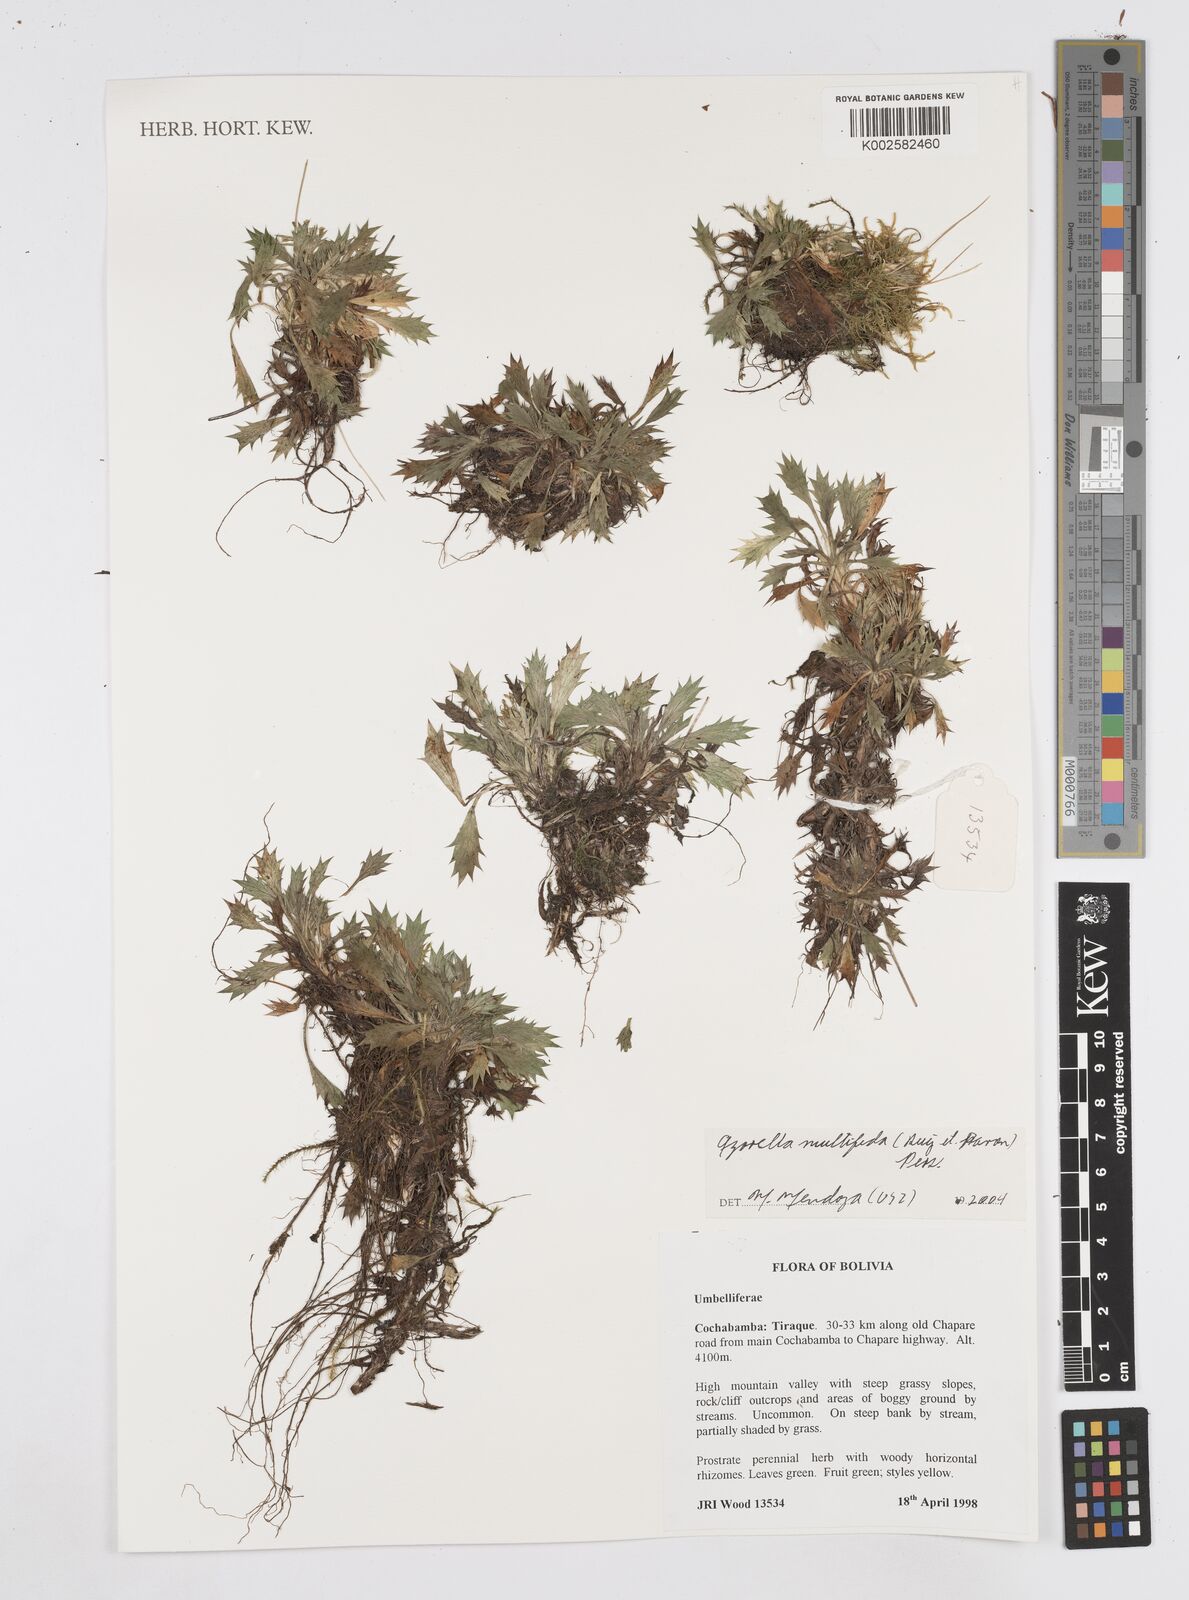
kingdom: Plantae
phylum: Tracheophyta
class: Magnoliopsida
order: Apiales
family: Apiaceae
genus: Azorella
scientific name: Azorella multifida
